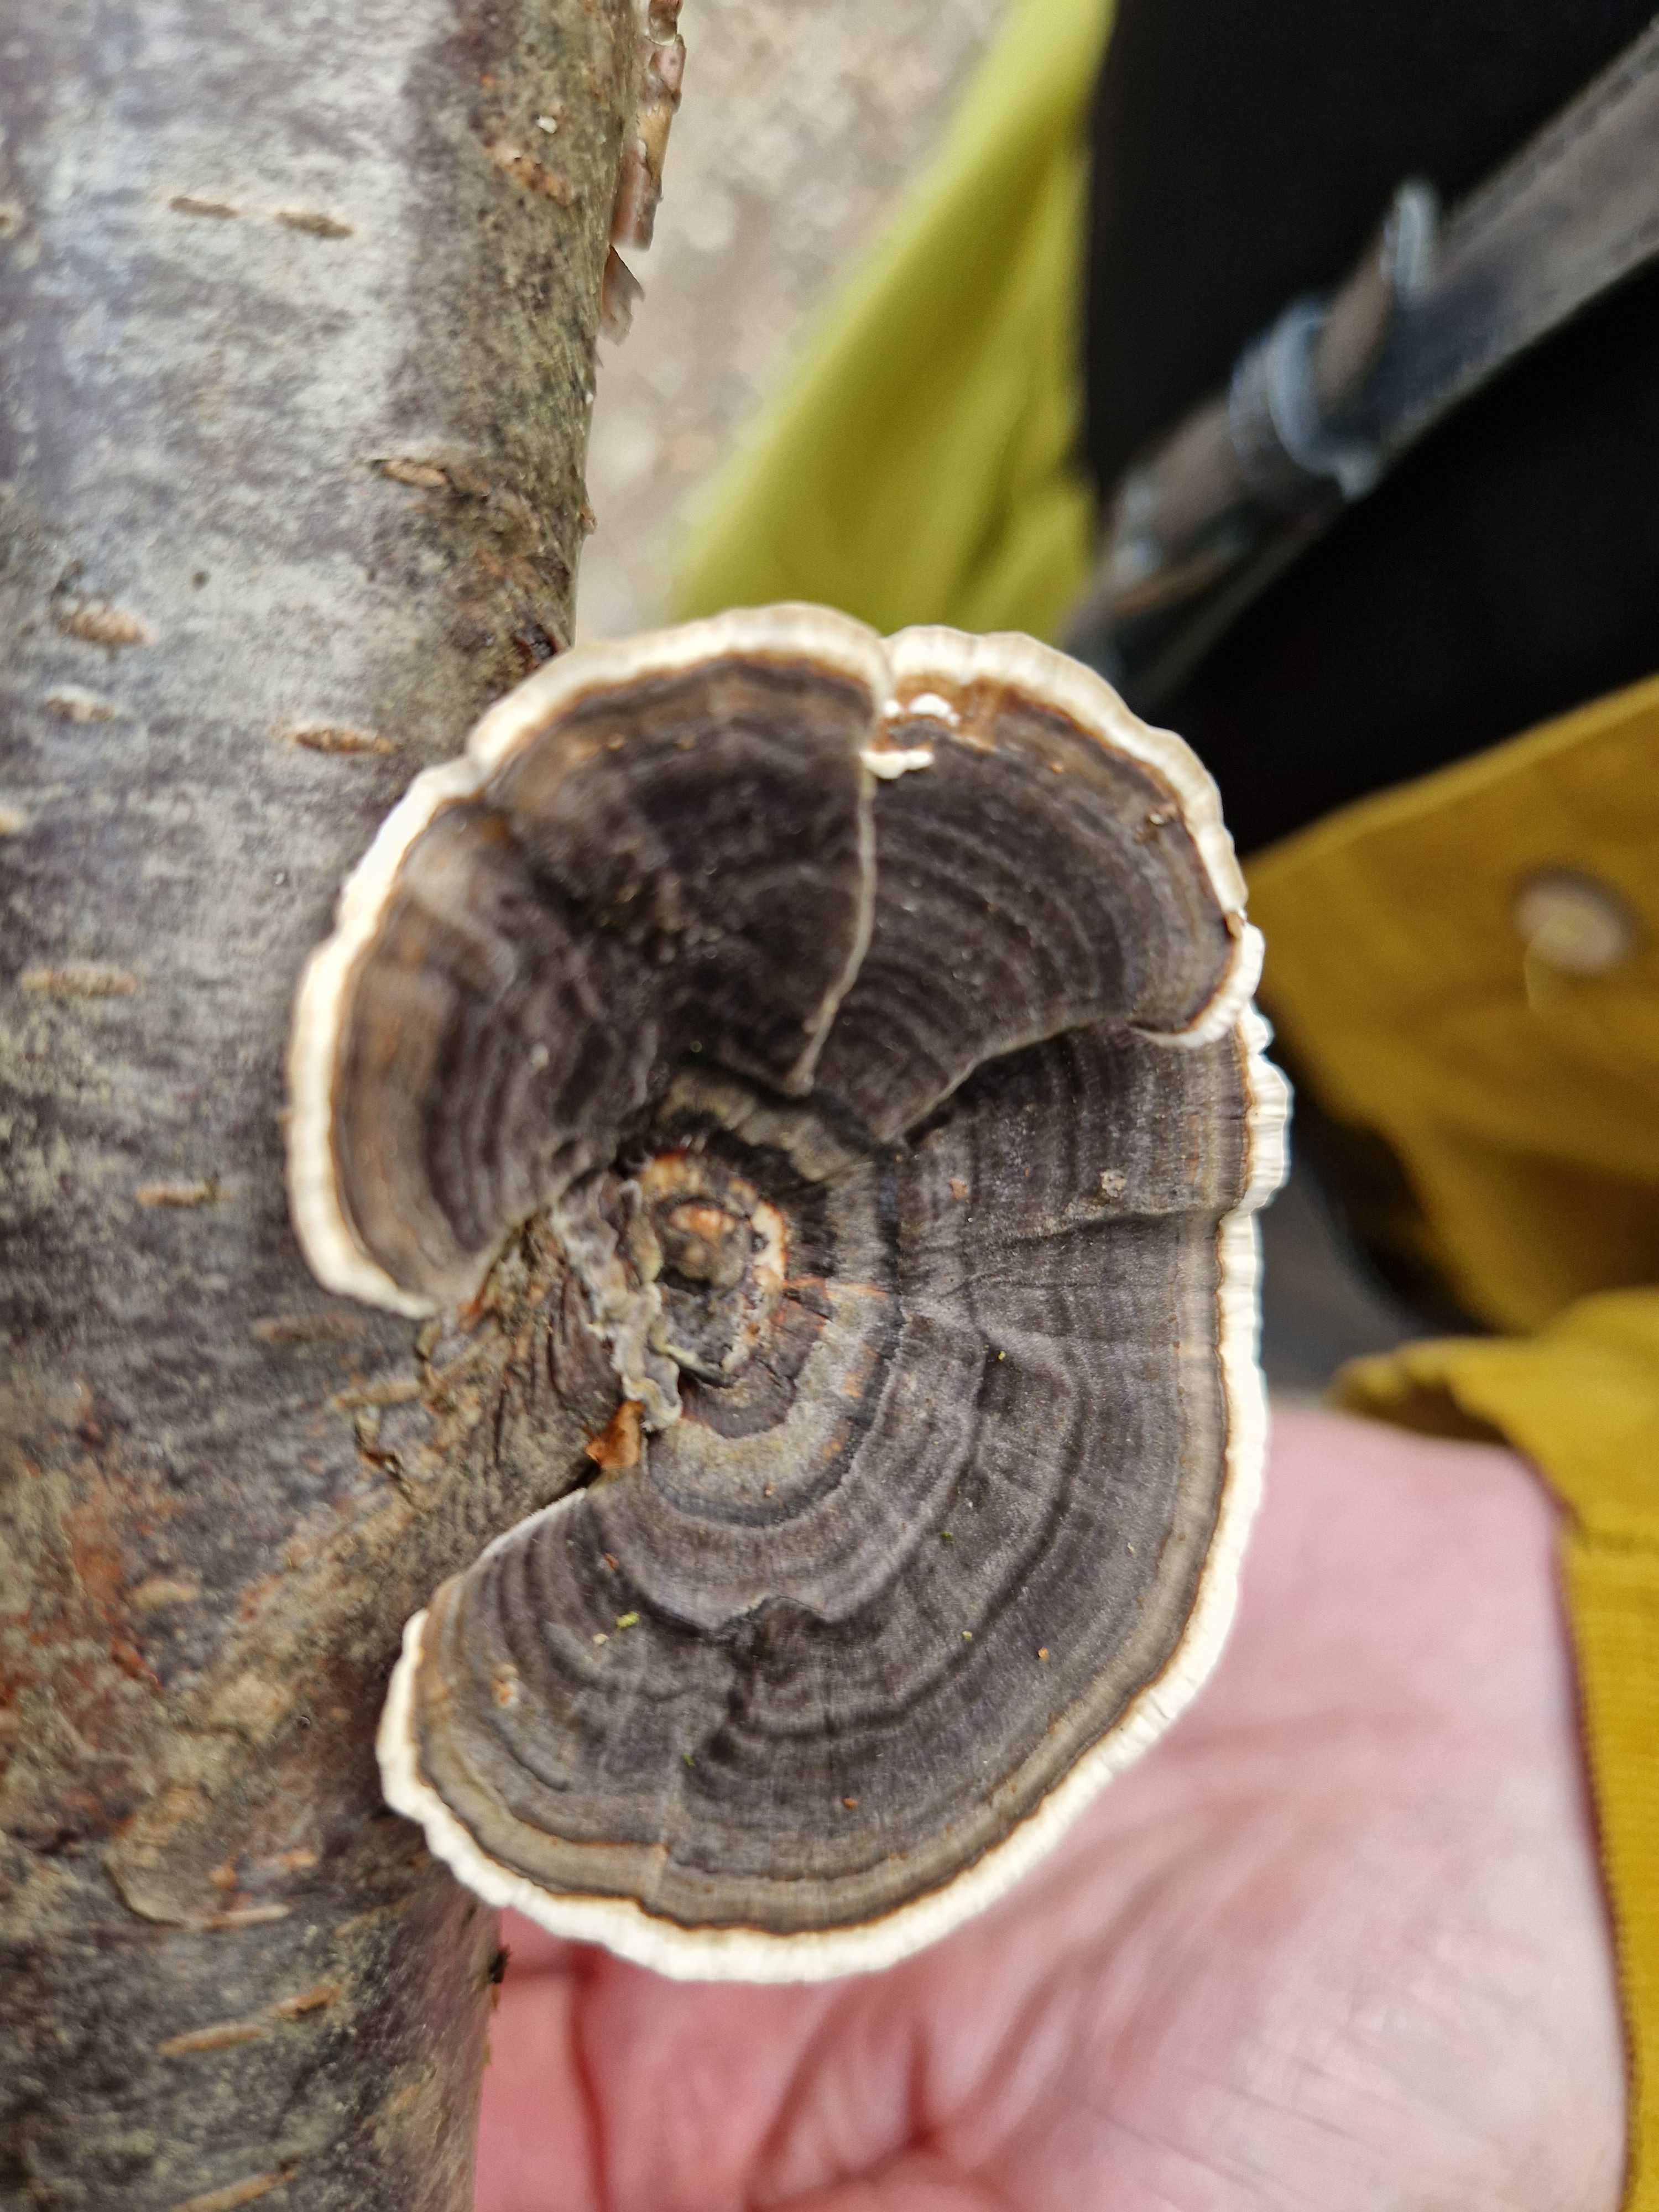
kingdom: Fungi
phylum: Basidiomycota
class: Agaricomycetes
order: Polyporales
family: Polyporaceae
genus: Trametes
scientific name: Trametes versicolor
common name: broget læderporesvamp
